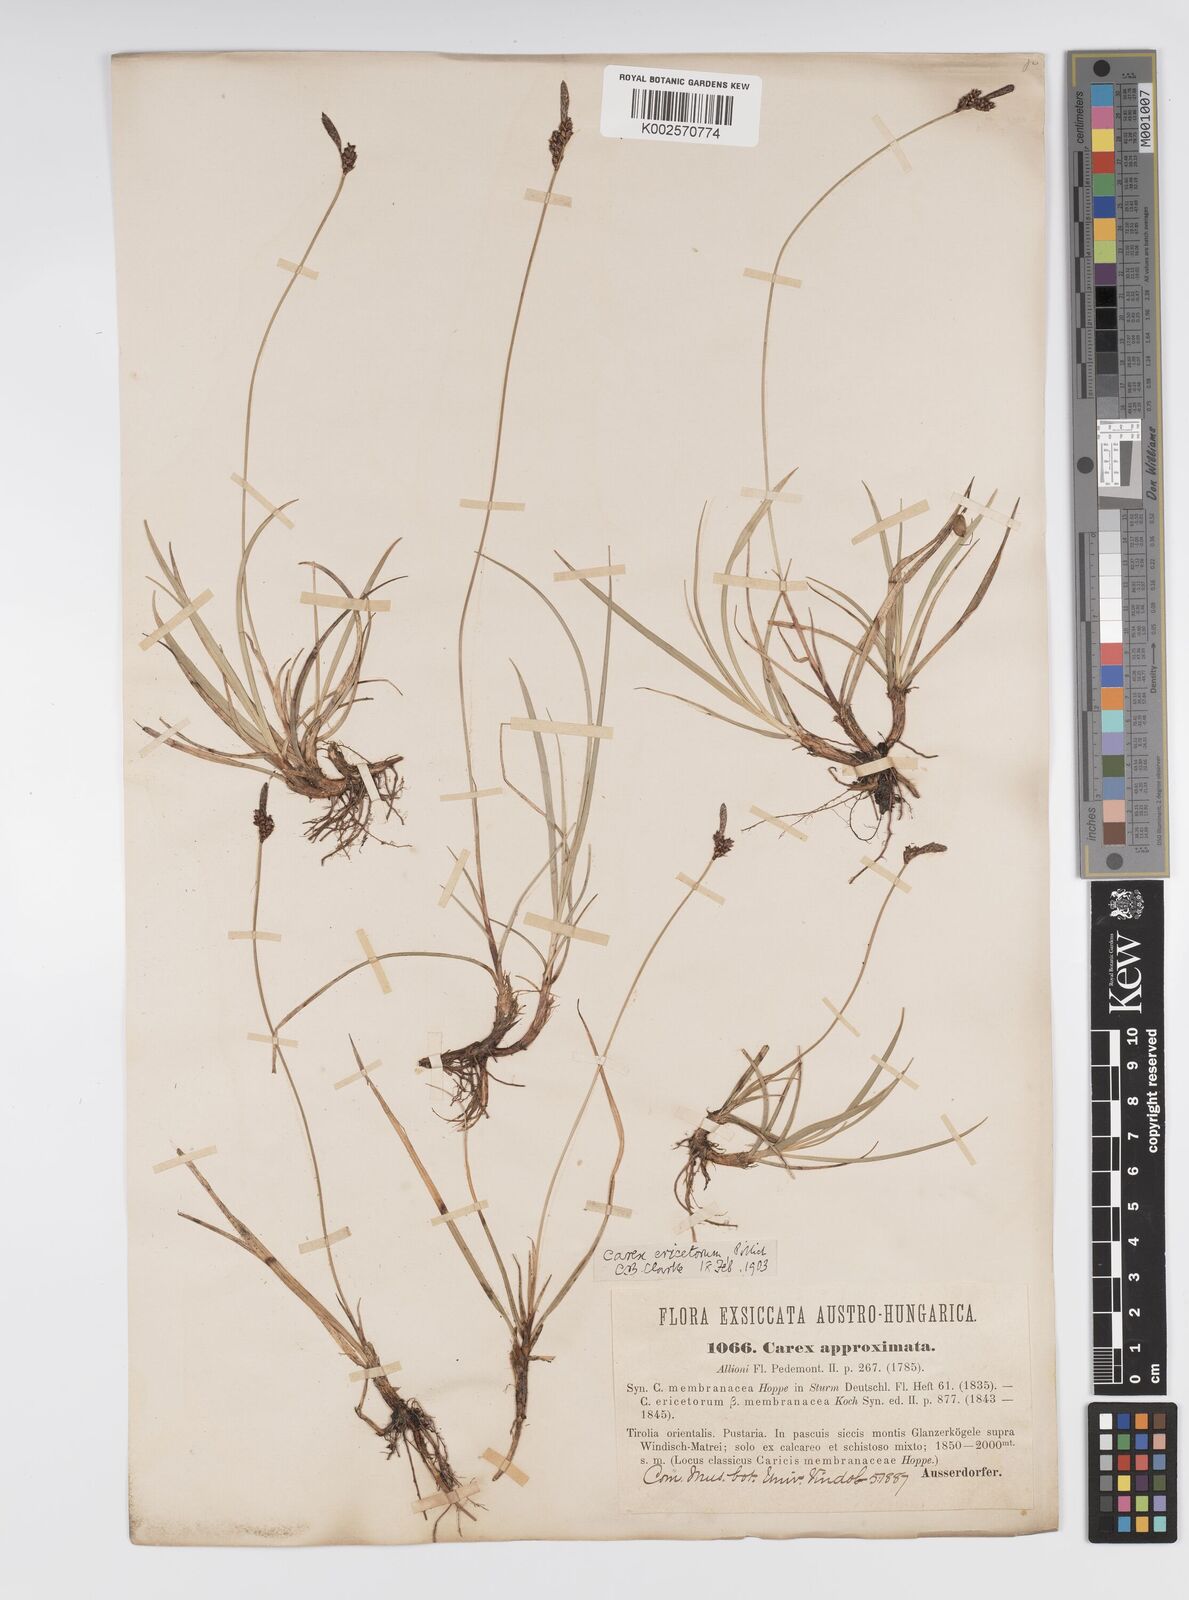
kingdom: Plantae
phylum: Tracheophyta
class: Liliopsida
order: Poales
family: Cyperaceae
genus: Carex
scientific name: Carex ericetorum
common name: Rare spring-sedge
